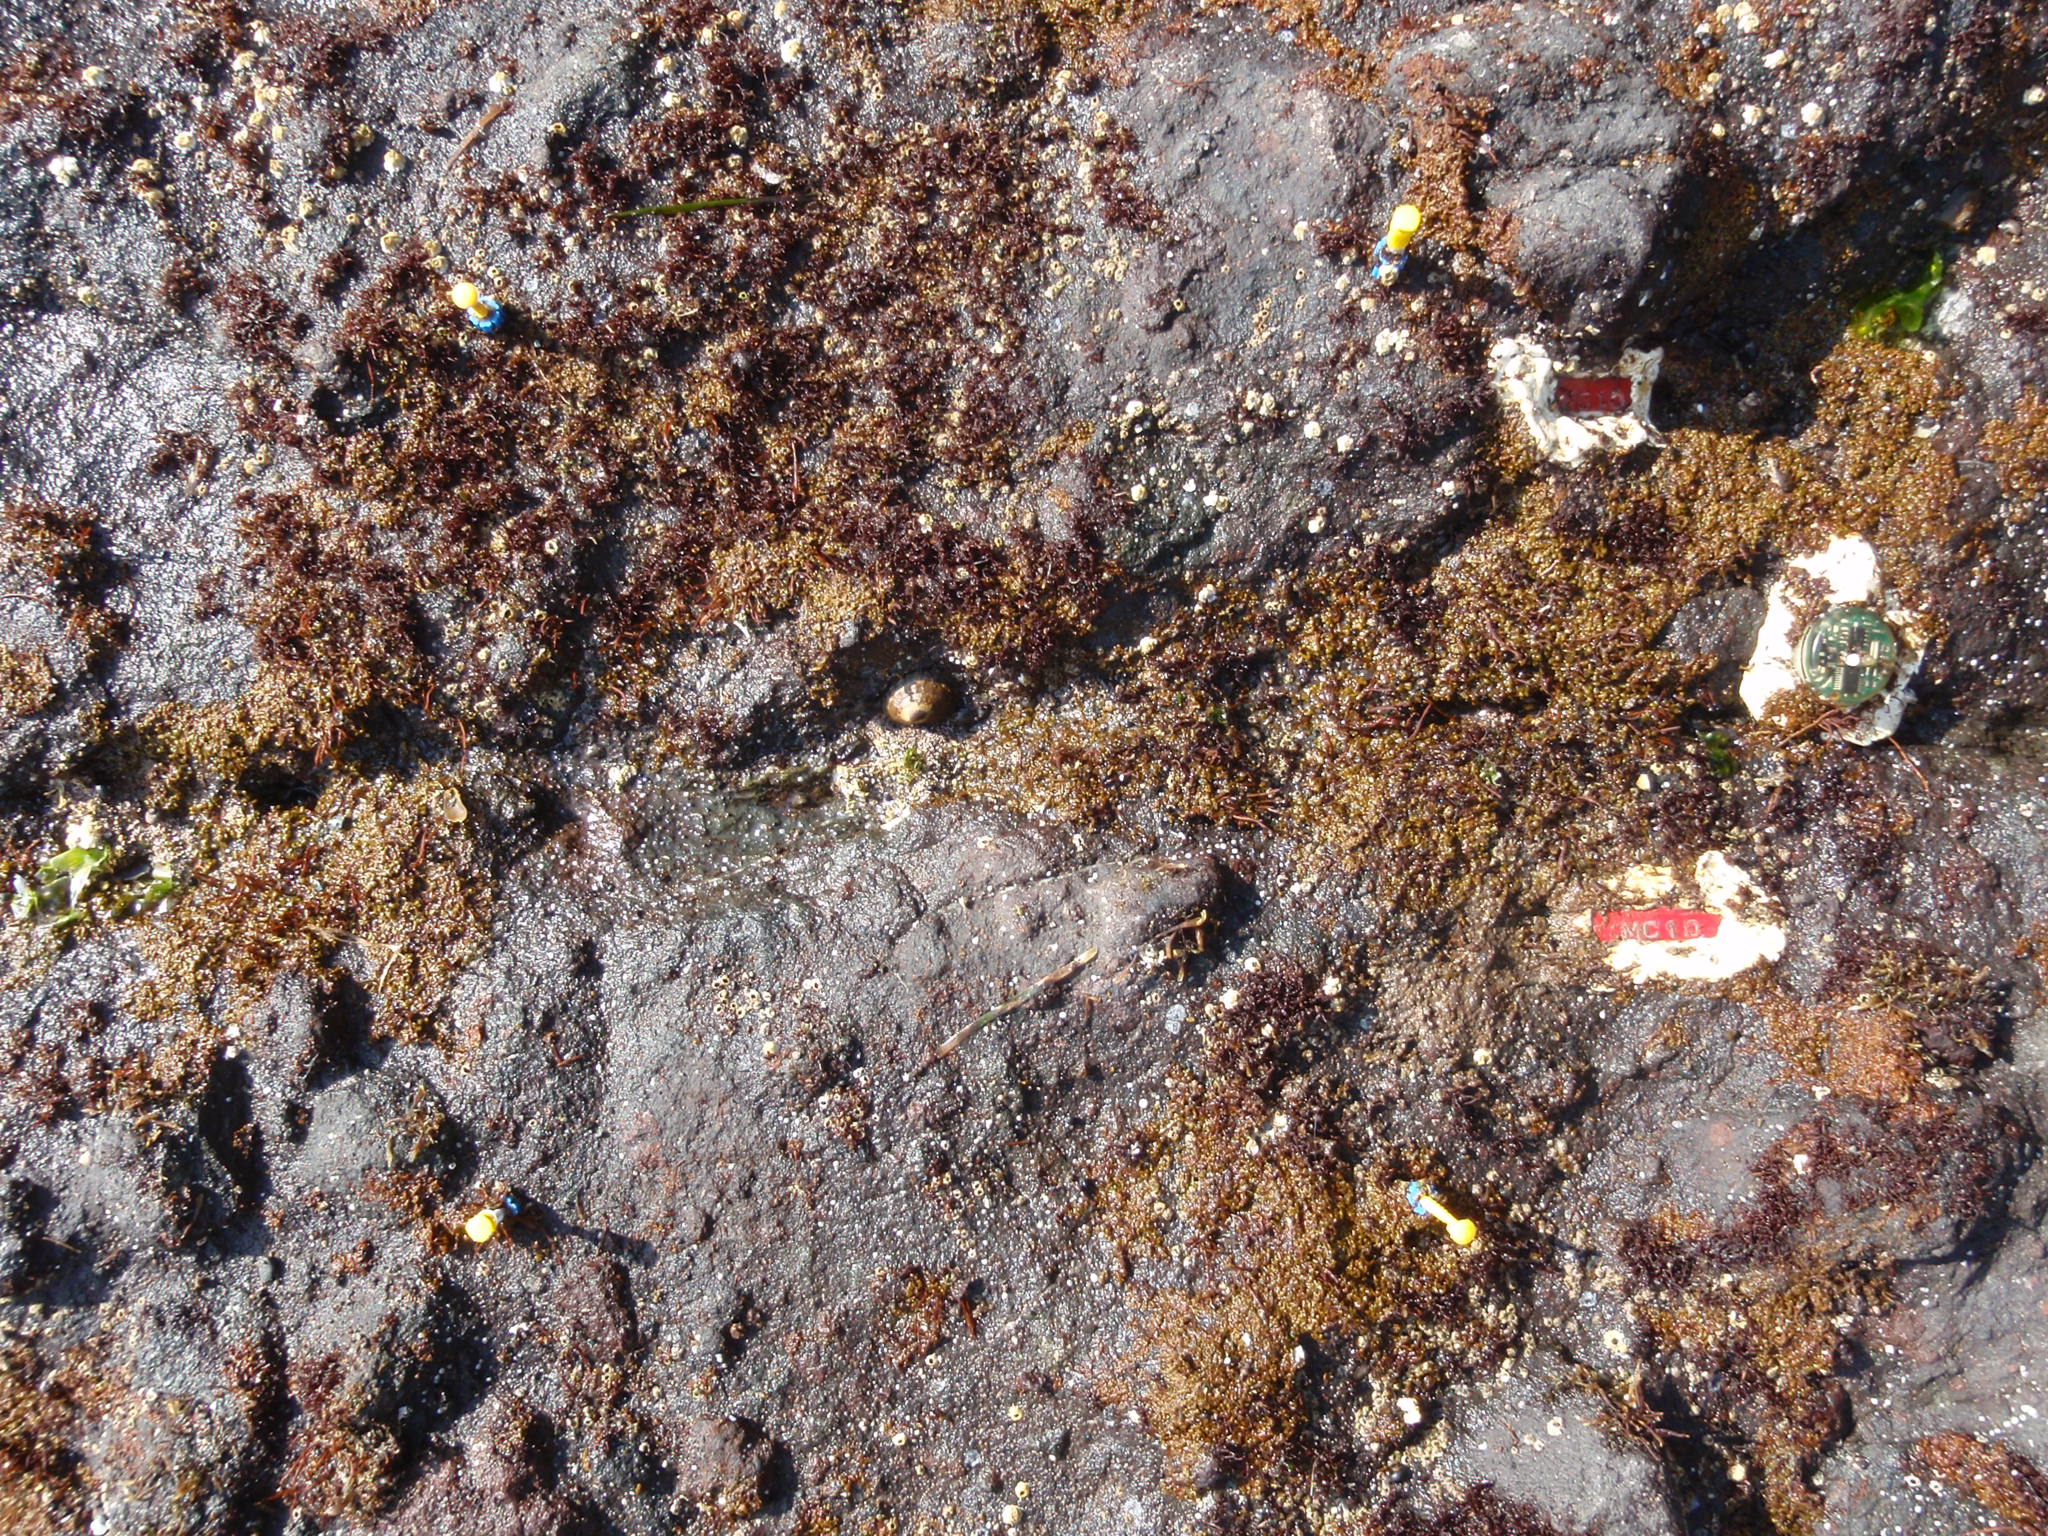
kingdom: Plantae
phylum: Rhodophyta
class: Florideophyceae
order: Corallinales
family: Corallinaceae
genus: Corallina
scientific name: Corallina pilulifera
